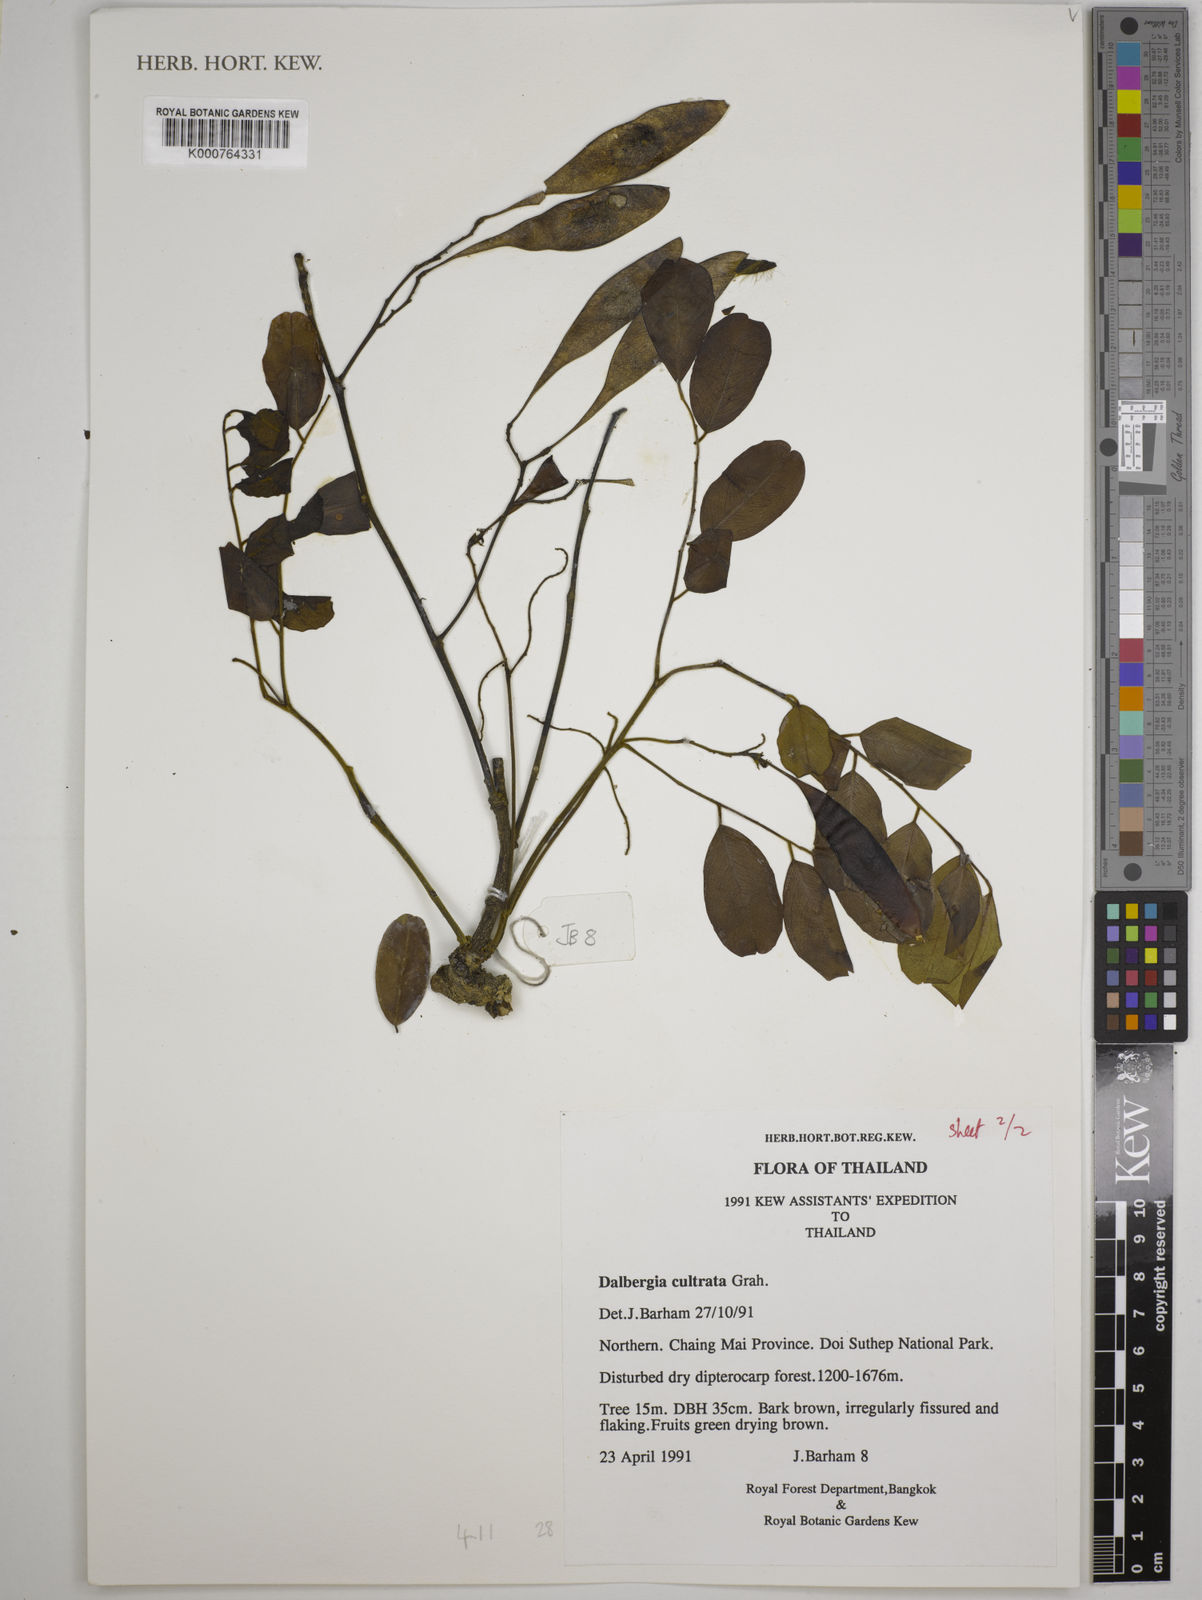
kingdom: Plantae
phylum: Tracheophyta
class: Magnoliopsida
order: Fabales
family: Fabaceae
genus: Dalbergia
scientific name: Dalbergia
